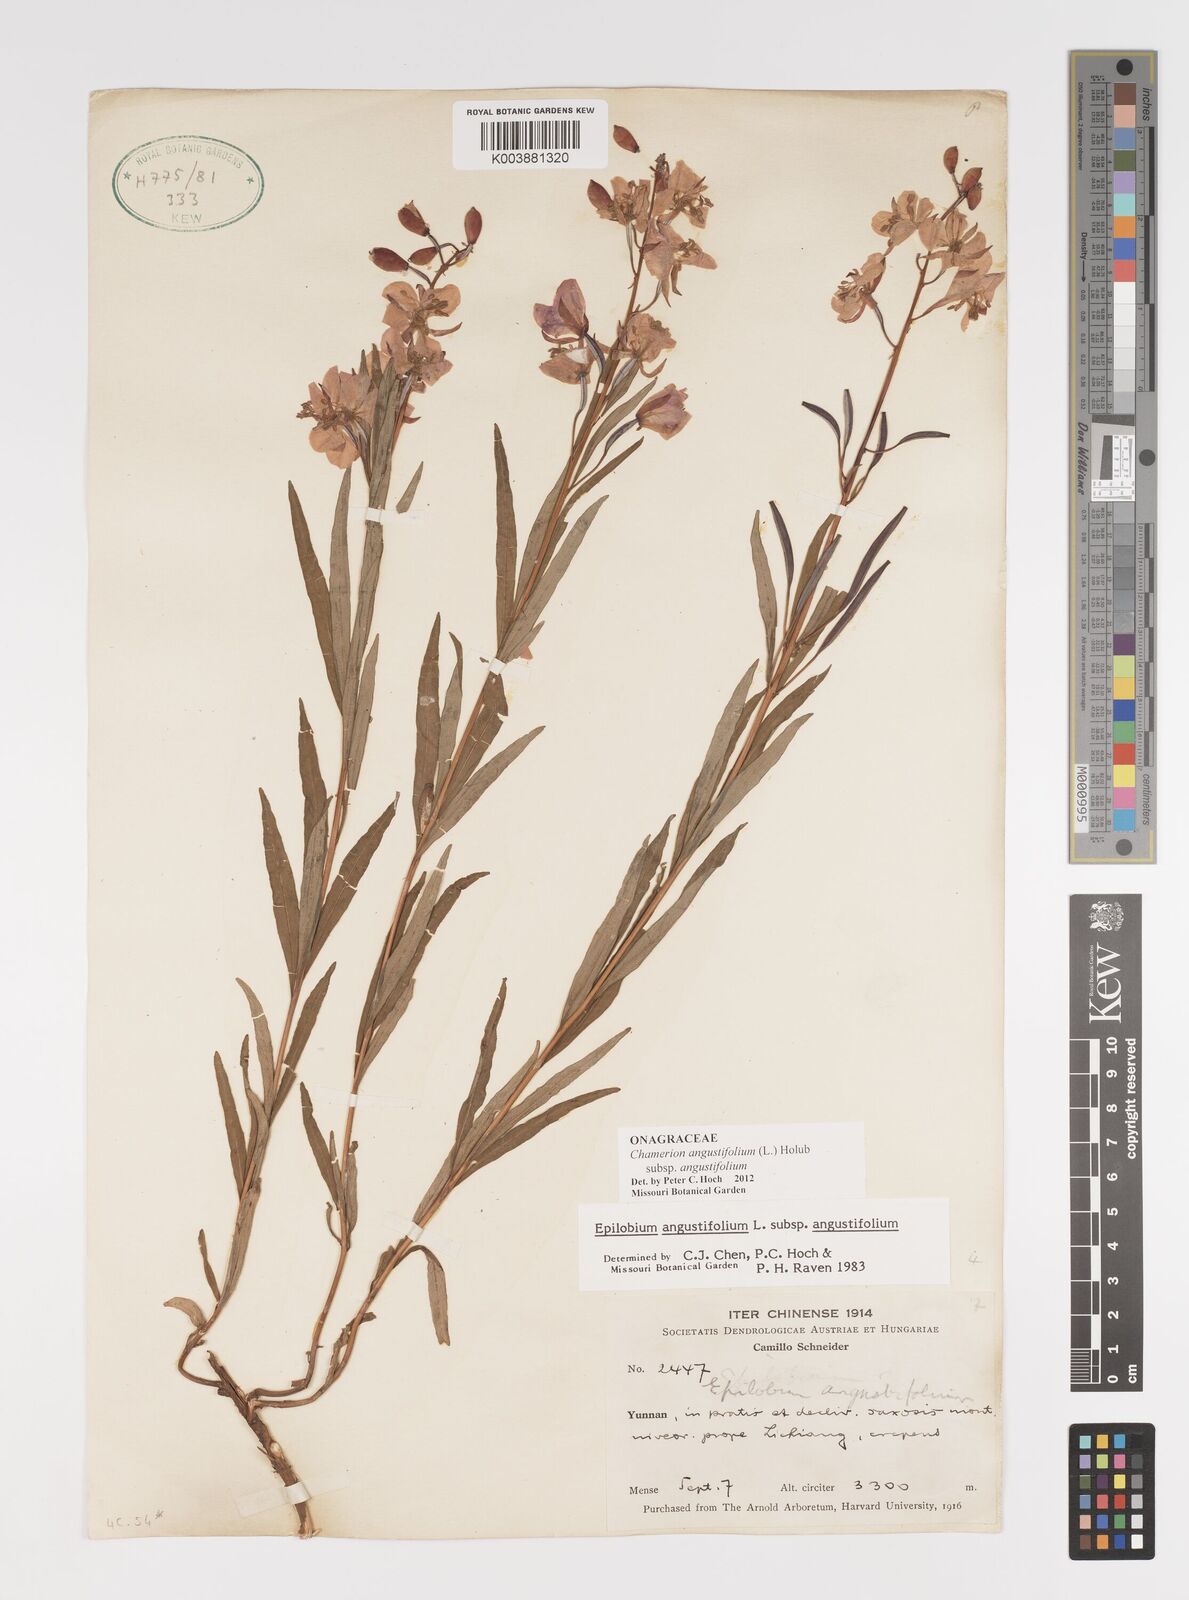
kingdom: Plantae
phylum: Tracheophyta
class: Magnoliopsida
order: Myrtales
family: Onagraceae
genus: Chamaenerion
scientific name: Chamaenerion angustifolium
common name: Fireweed
